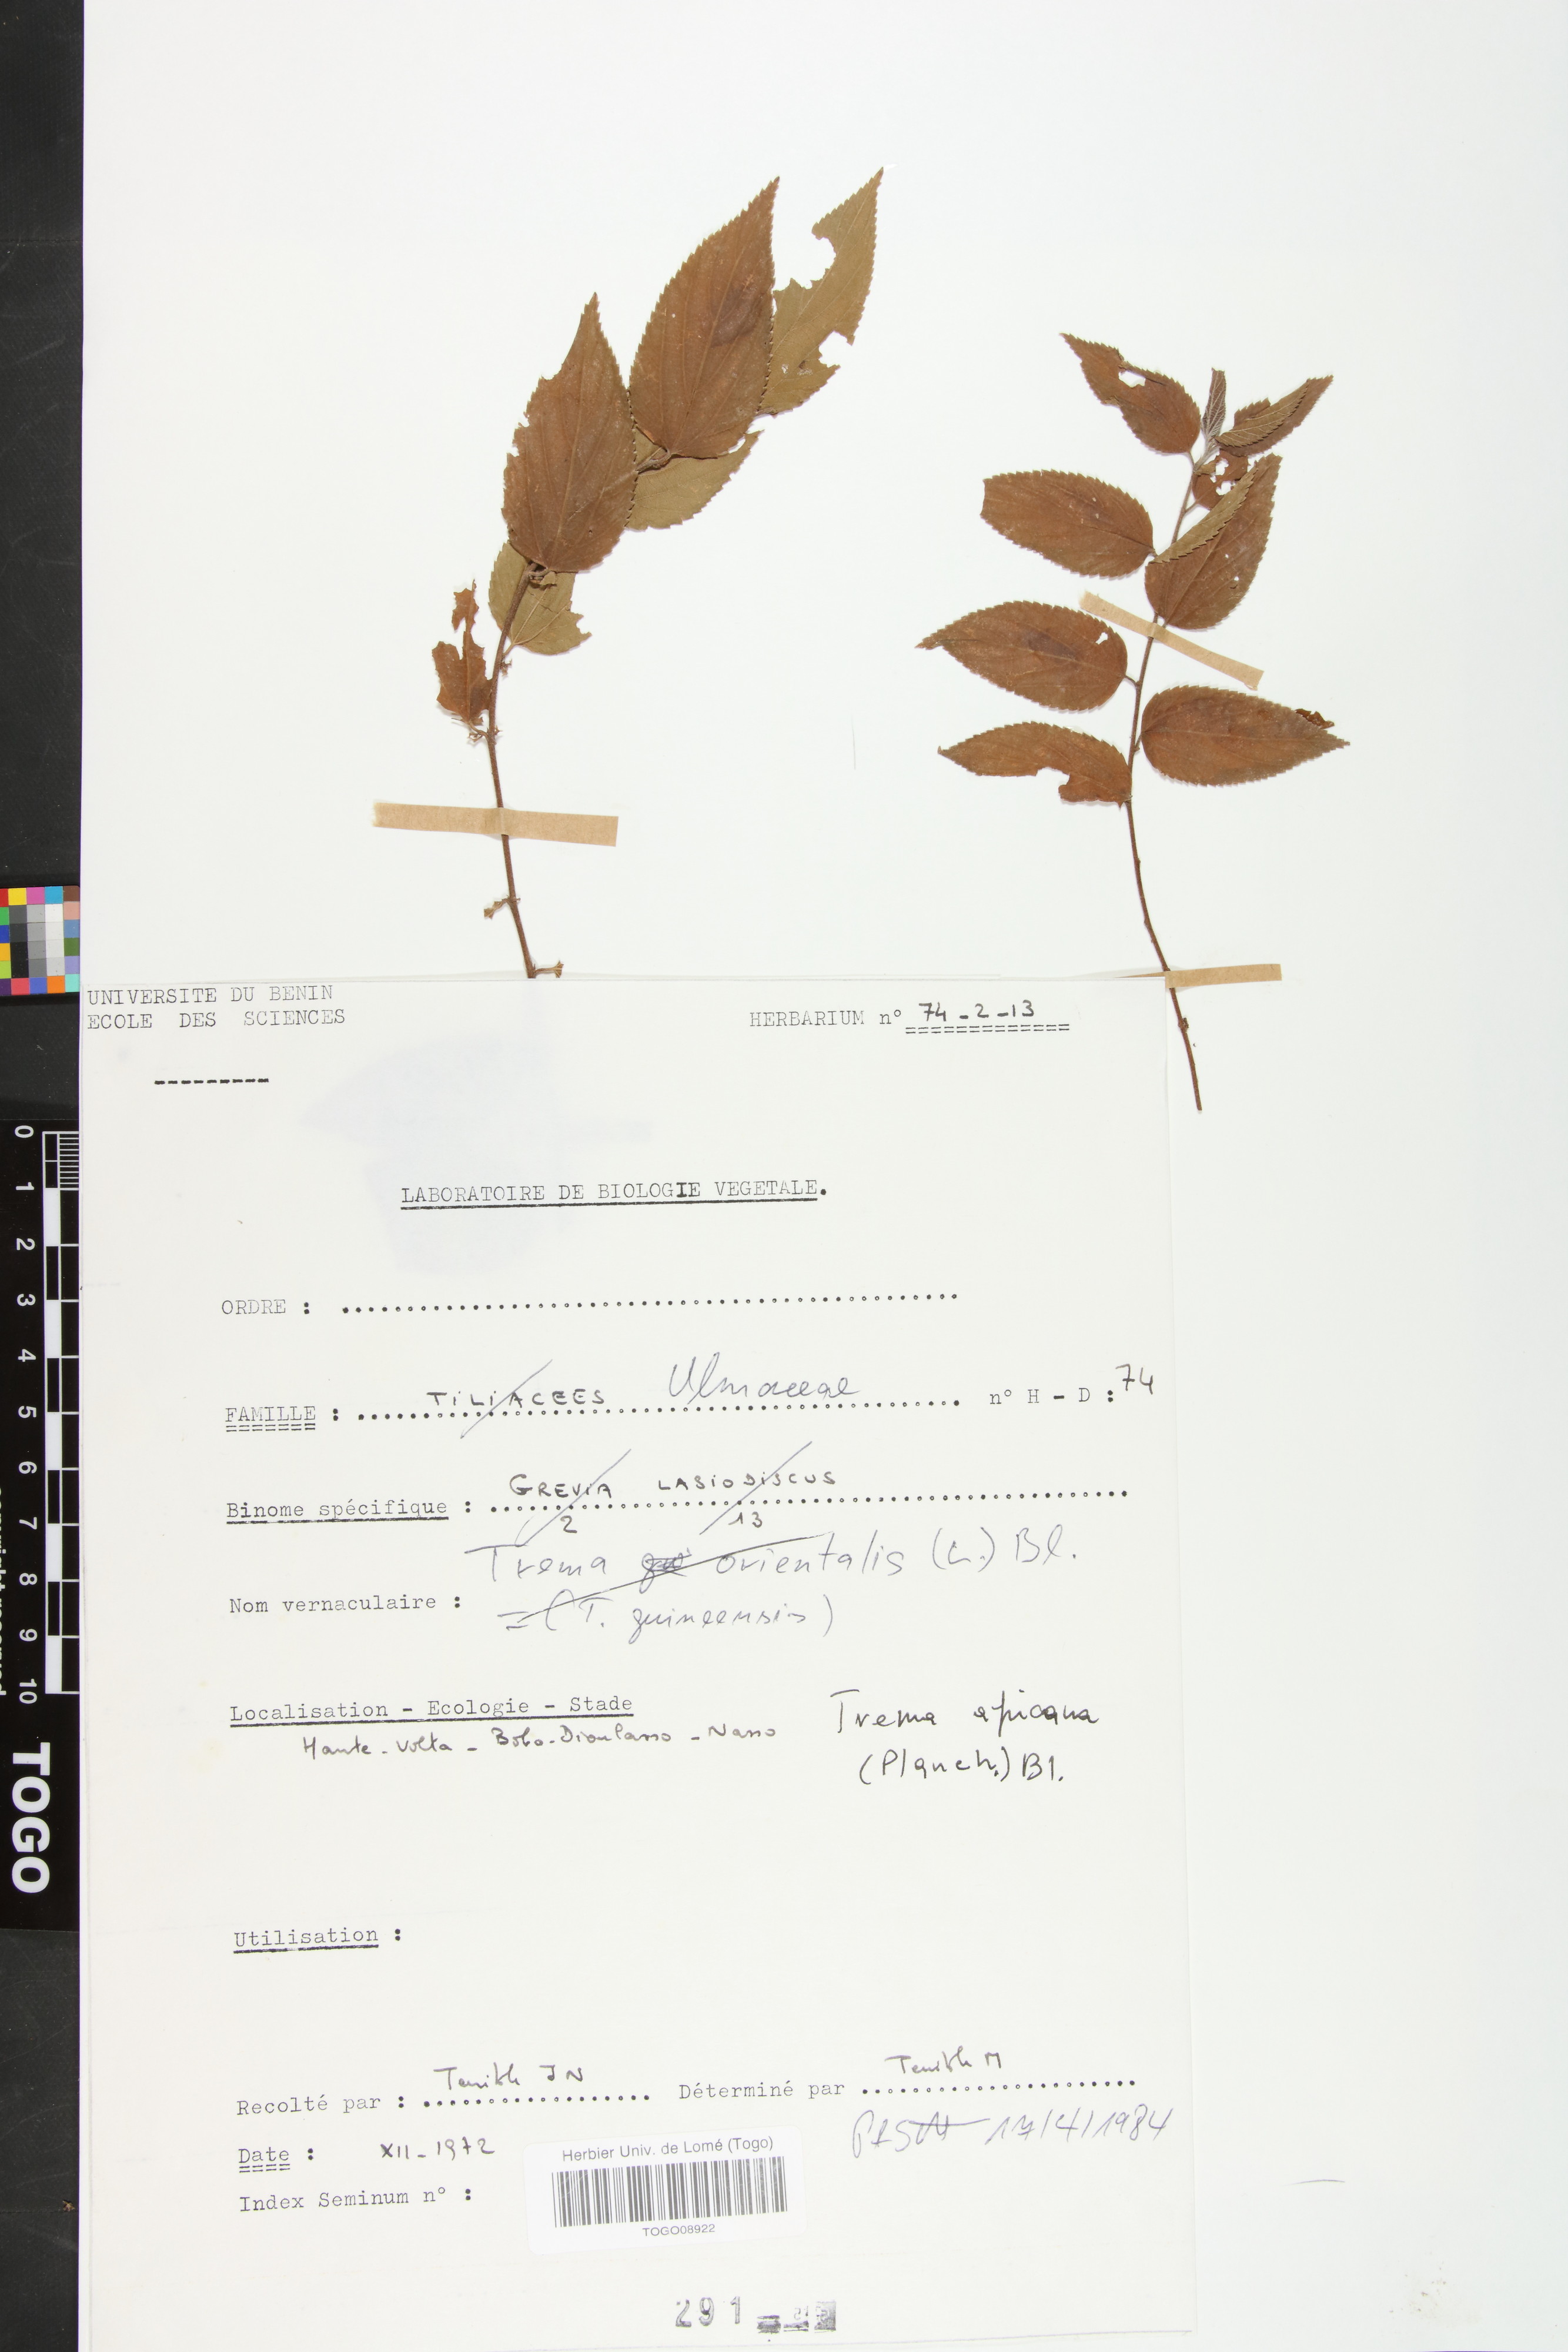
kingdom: Plantae
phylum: Tracheophyta
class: Magnoliopsida
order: Rosales
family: Cannabaceae
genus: Trema
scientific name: Trema orientale
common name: Indian charcoal tree
